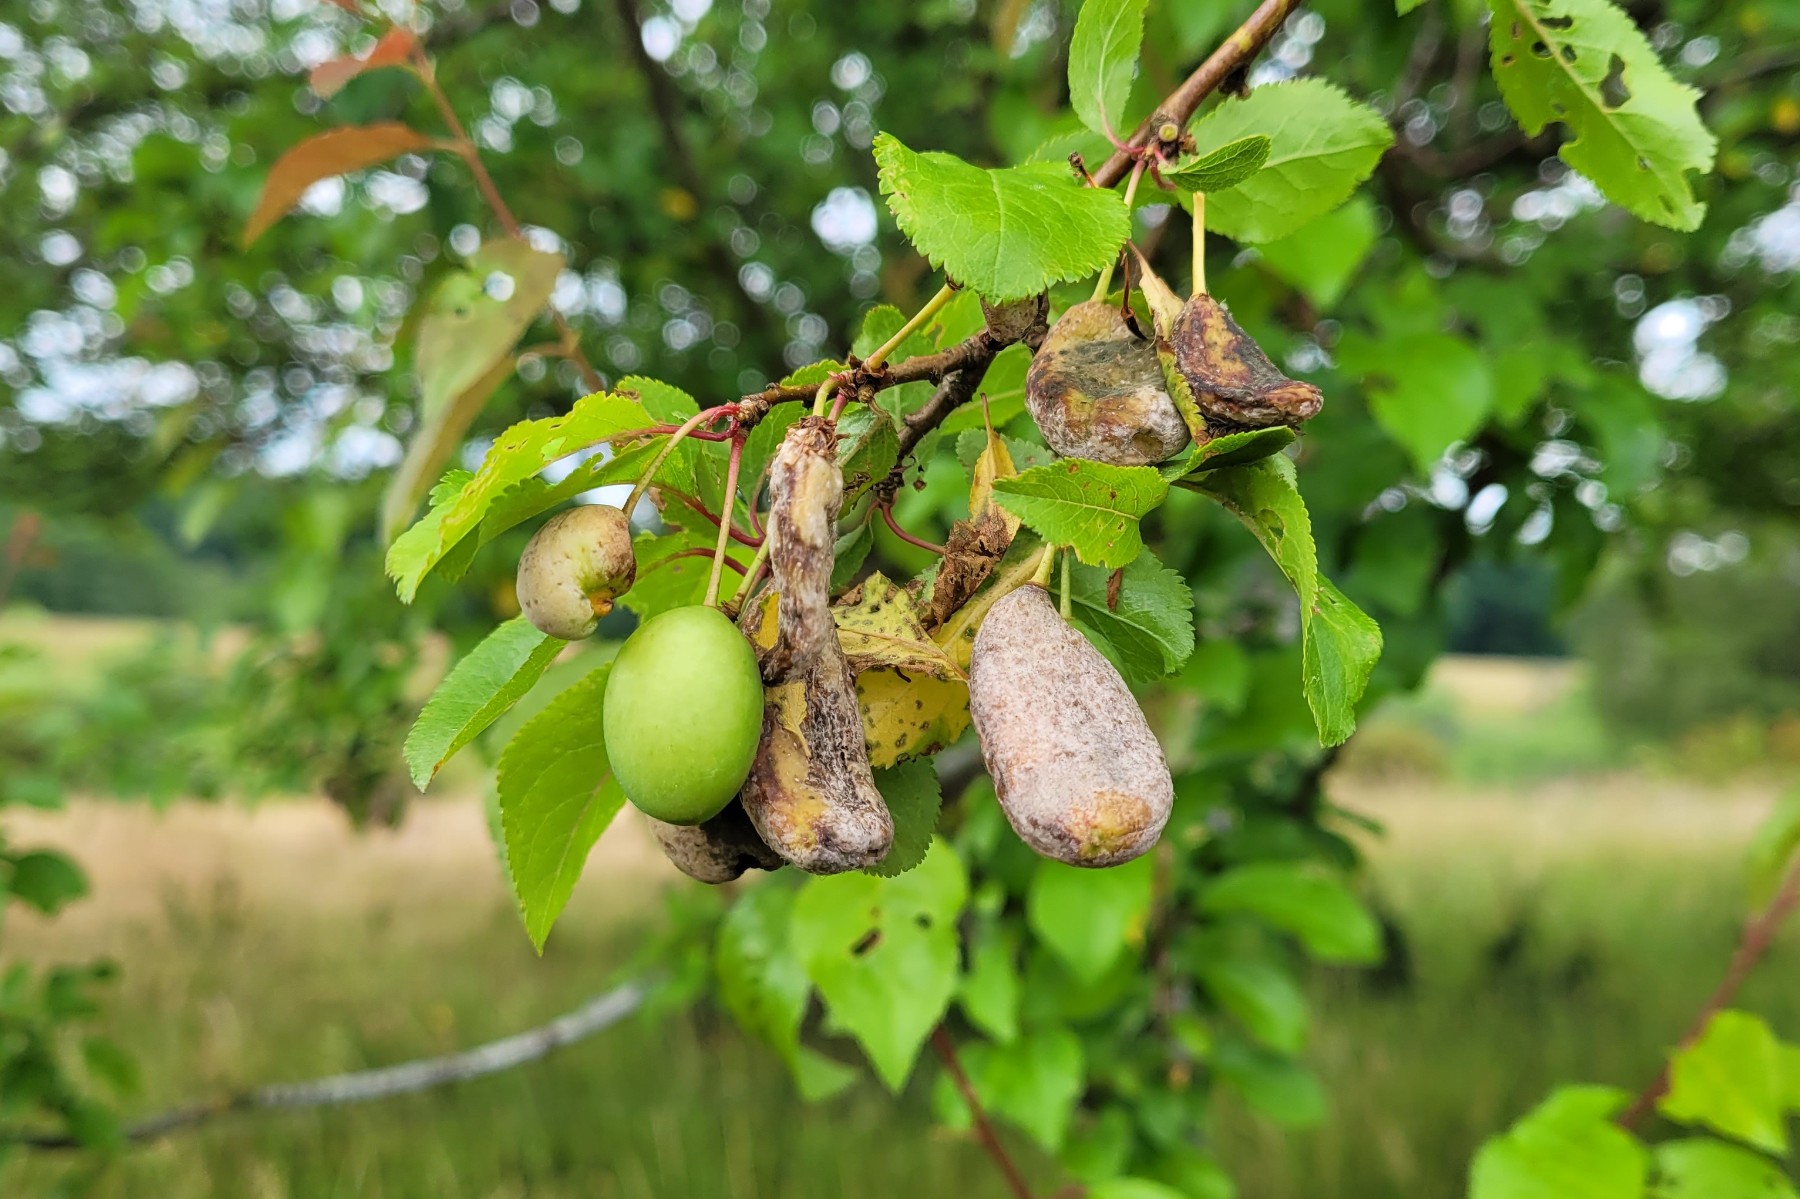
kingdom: Fungi
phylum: Ascomycota
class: Taphrinomycetes
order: Taphrinales
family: Taphrinaceae
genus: Taphrina
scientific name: Taphrina pruni
